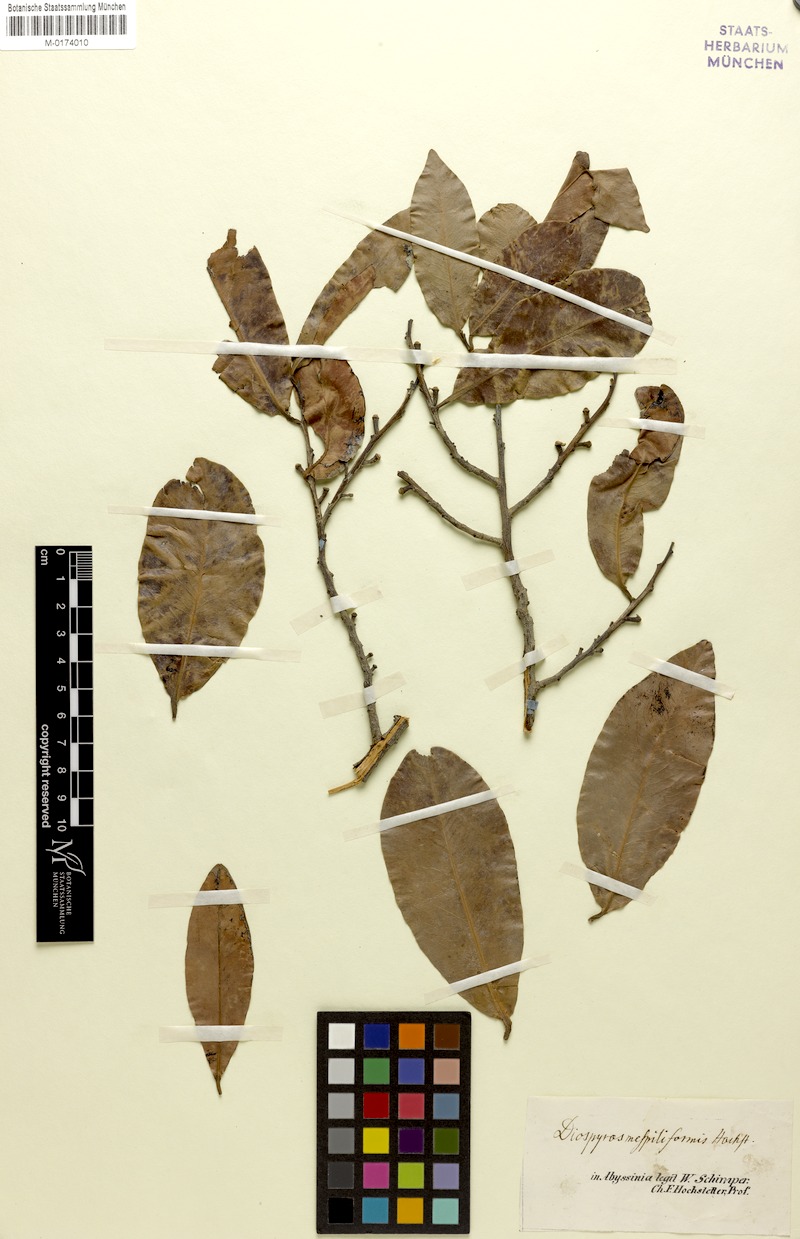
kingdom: Plantae
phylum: Tracheophyta
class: Magnoliopsida
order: Ericales
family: Ebenaceae
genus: Diospyros
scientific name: Diospyros mespiliformis
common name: Ebony diospyros
